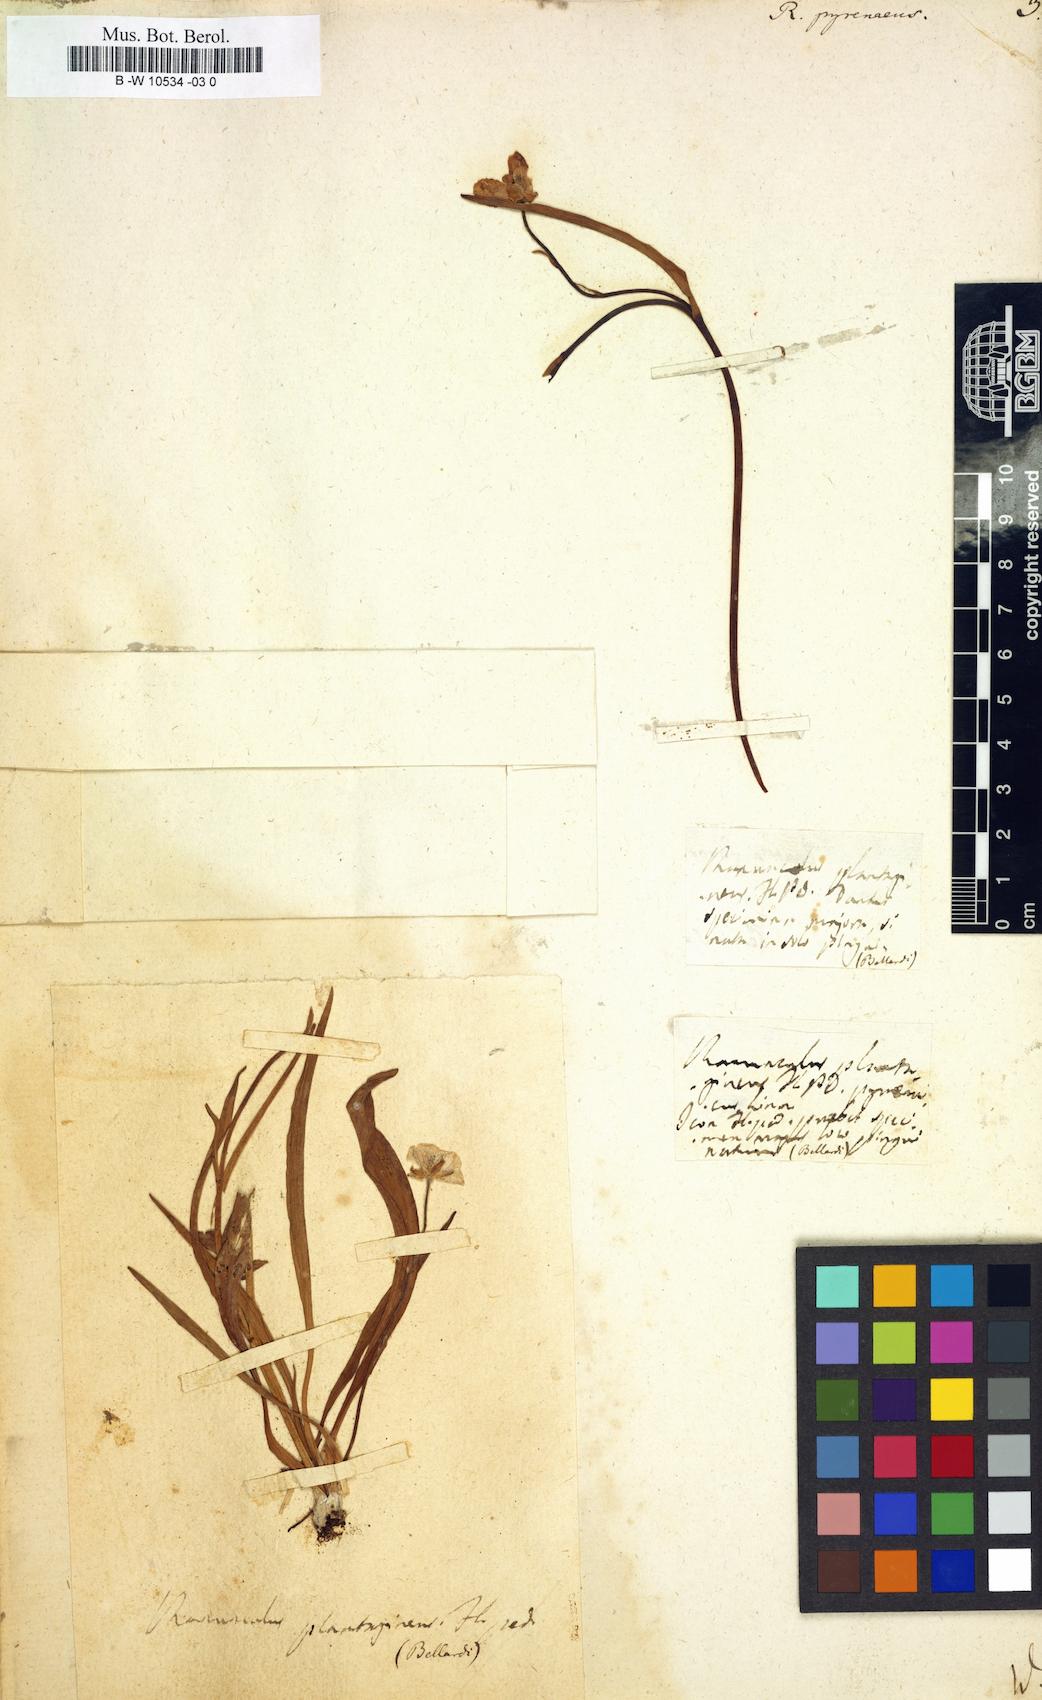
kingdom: Plantae
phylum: Tracheophyta
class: Magnoliopsida
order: Ranunculales
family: Ranunculaceae
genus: Ranunculus
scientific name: Ranunculus pyrenaeus
